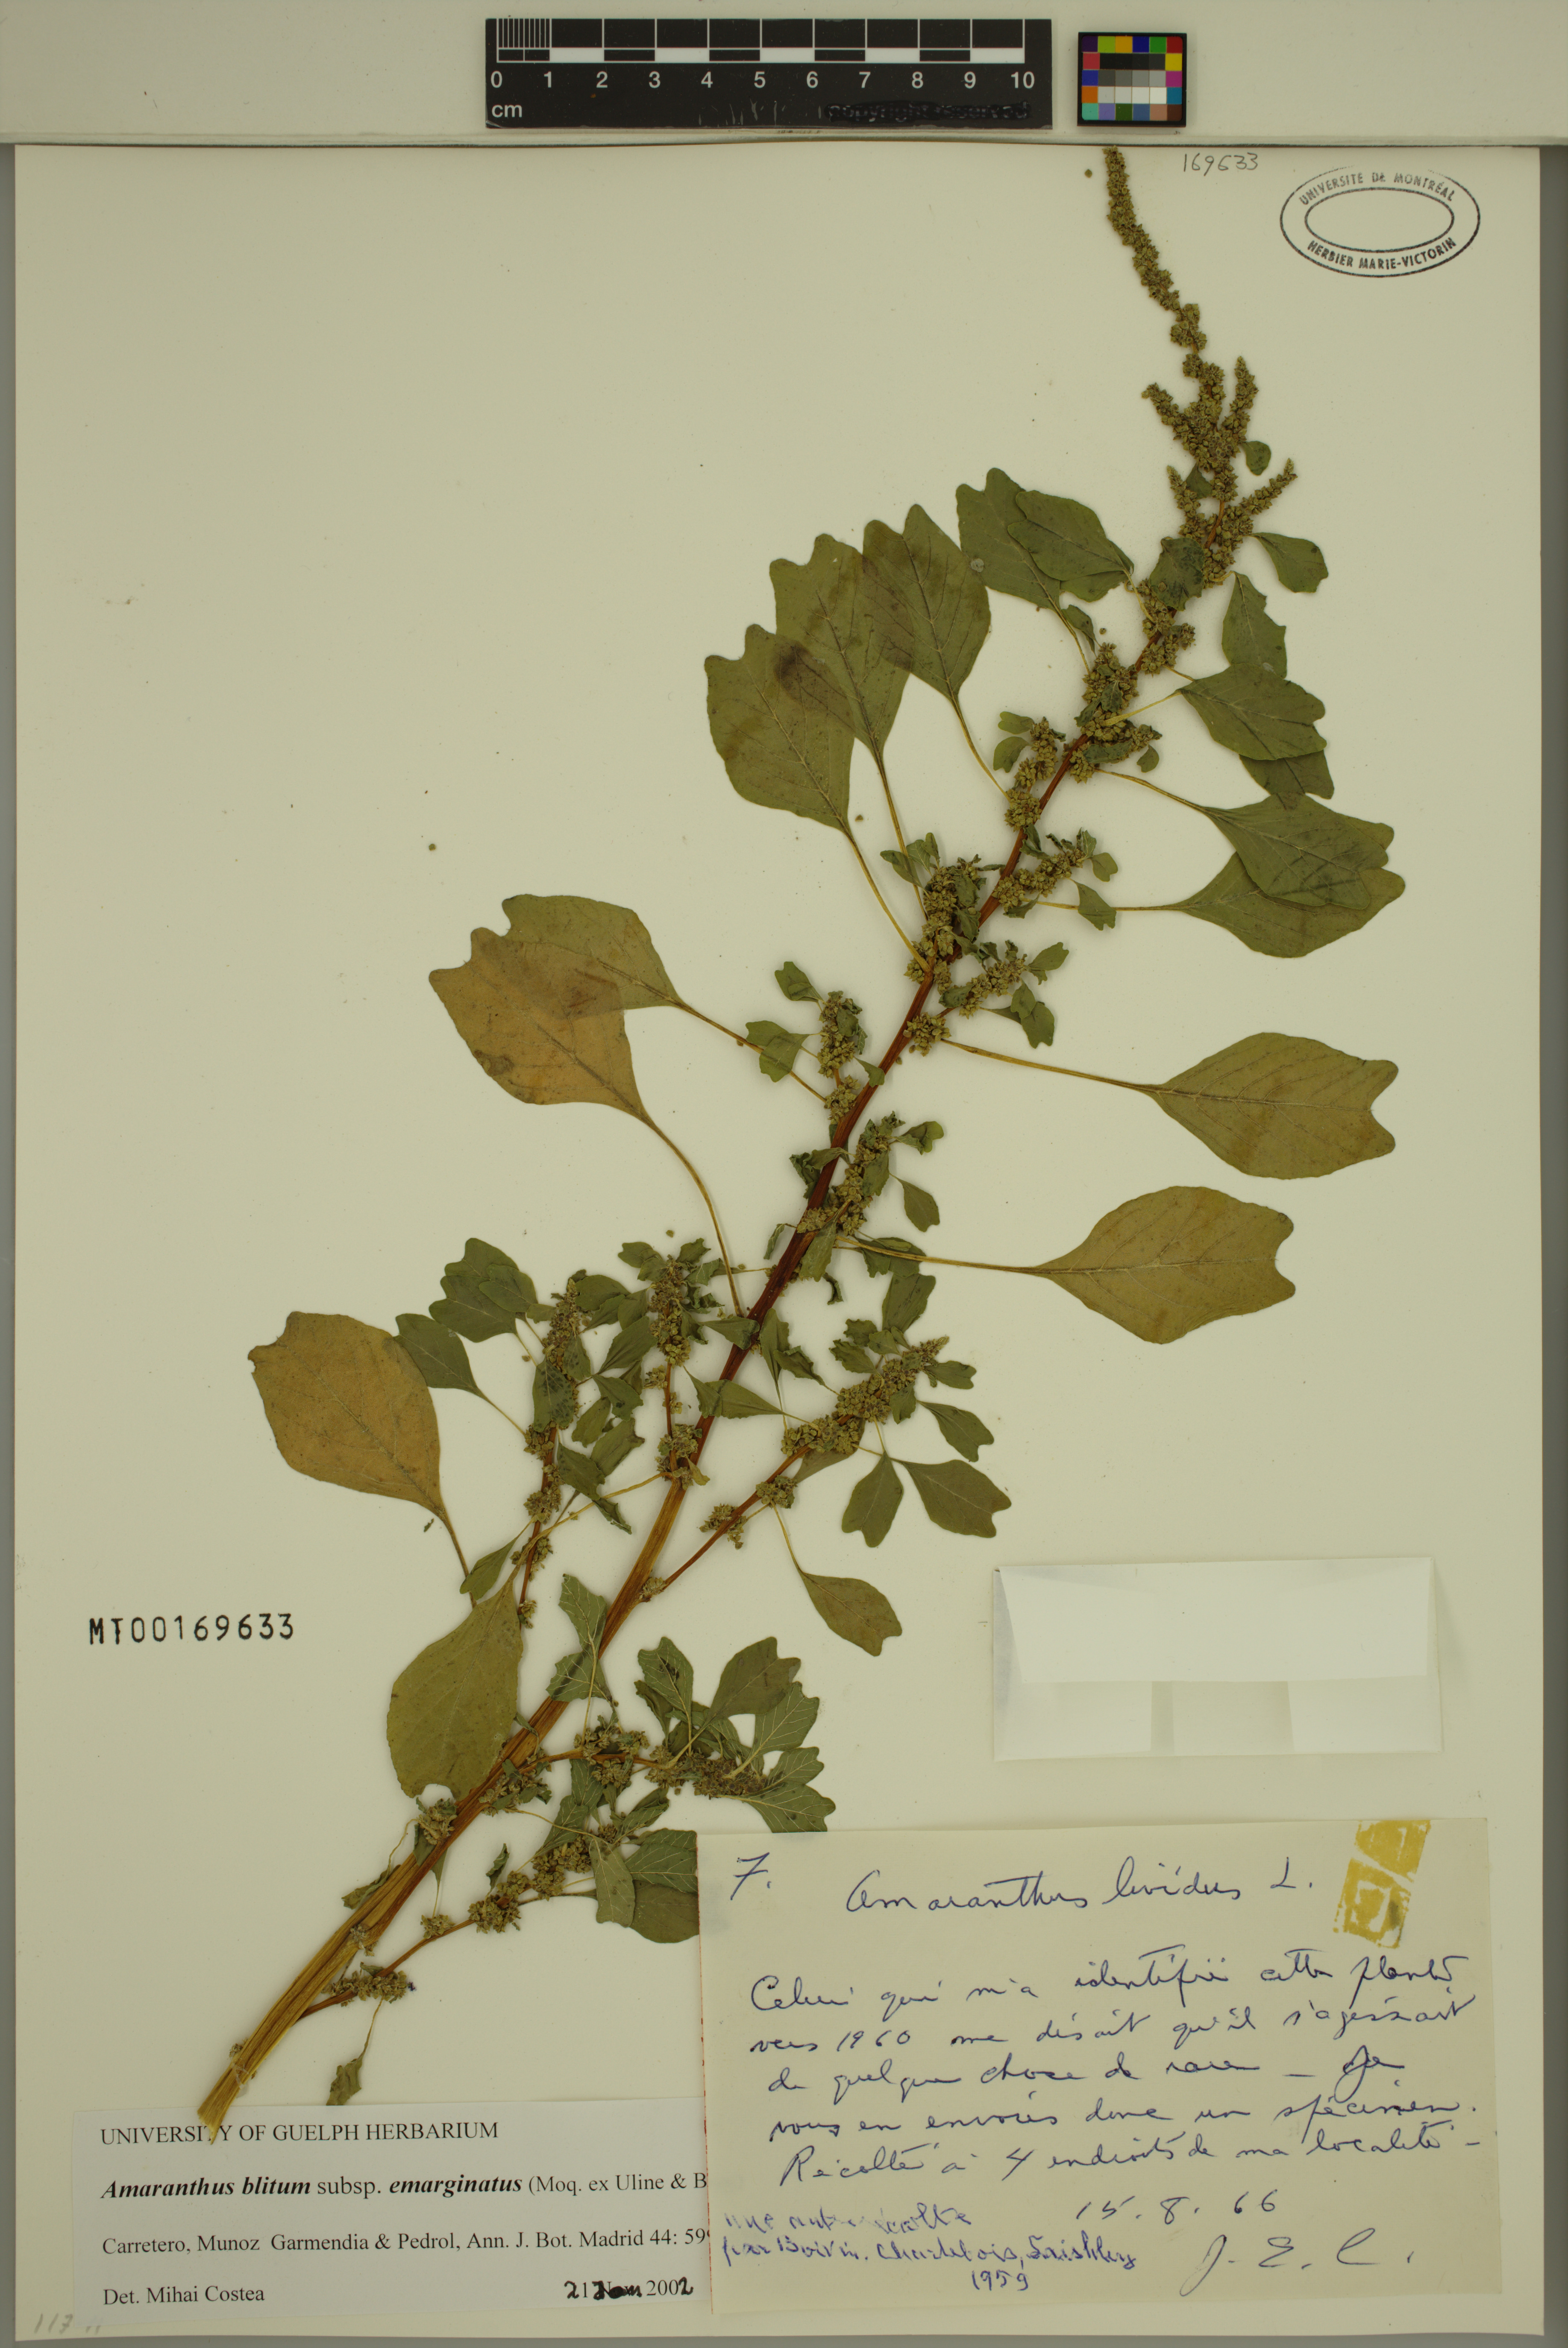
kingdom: Plantae
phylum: Tracheophyta
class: Magnoliopsida
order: Caryophyllales
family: Amaranthaceae
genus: Amaranthus
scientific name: Amaranthus emarginatus
